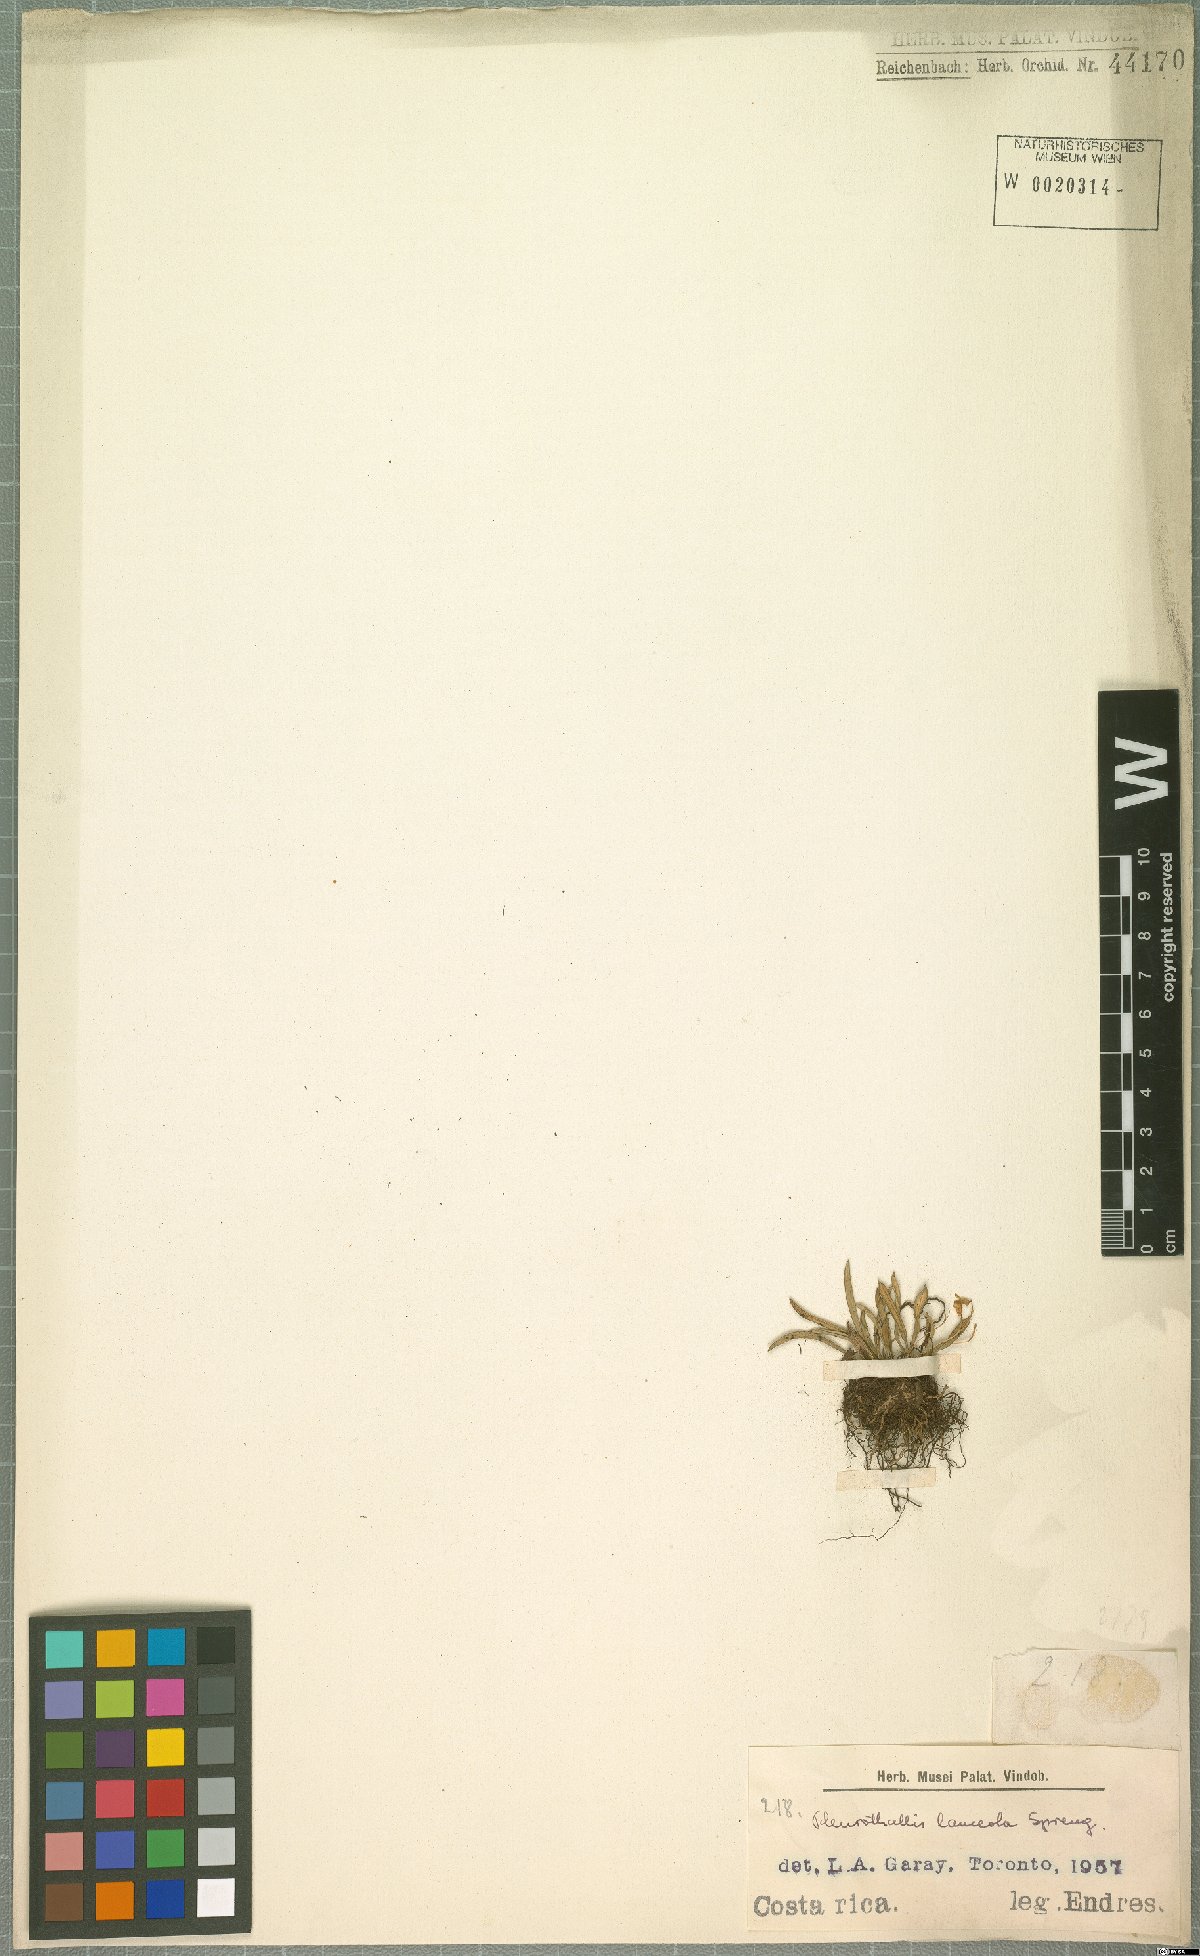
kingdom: Plantae
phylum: Tracheophyta
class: Liliopsida
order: Asparagales
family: Orchidaceae
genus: Specklinia
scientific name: Specklinia lanceola
